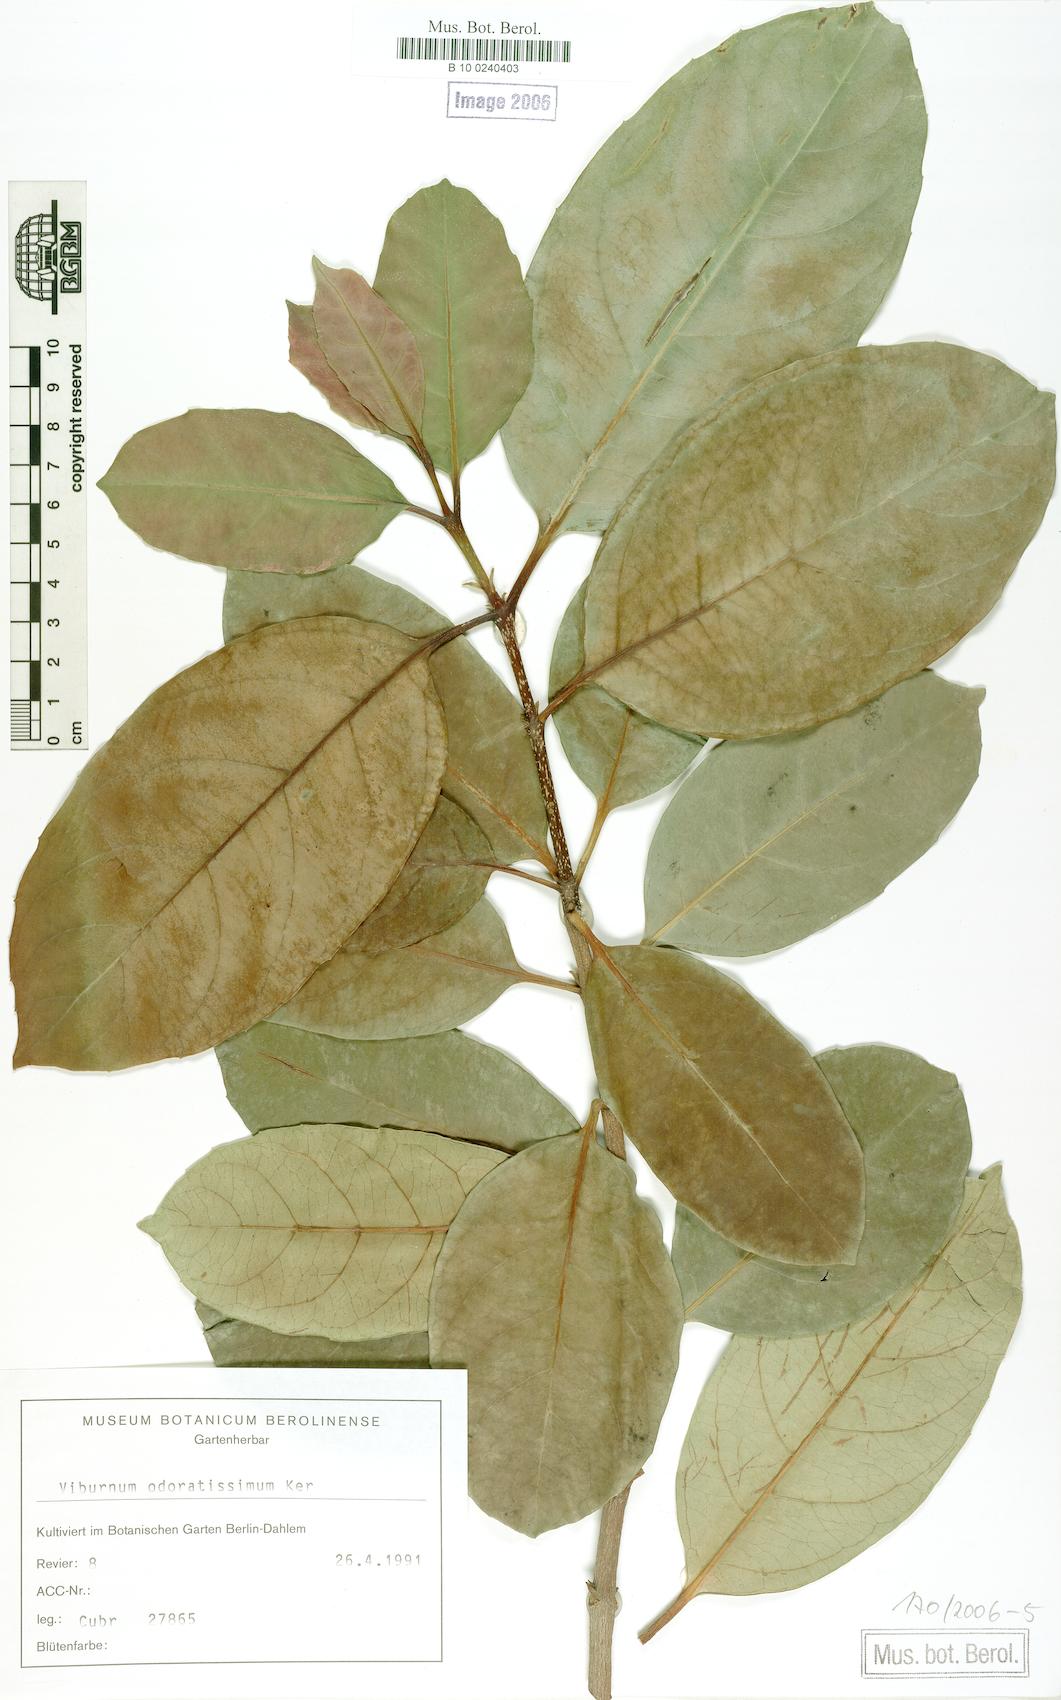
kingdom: Plantae
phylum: Tracheophyta
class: Magnoliopsida
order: Dipsacales
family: Viburnaceae
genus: Viburnum
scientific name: Viburnum odoratissimum
